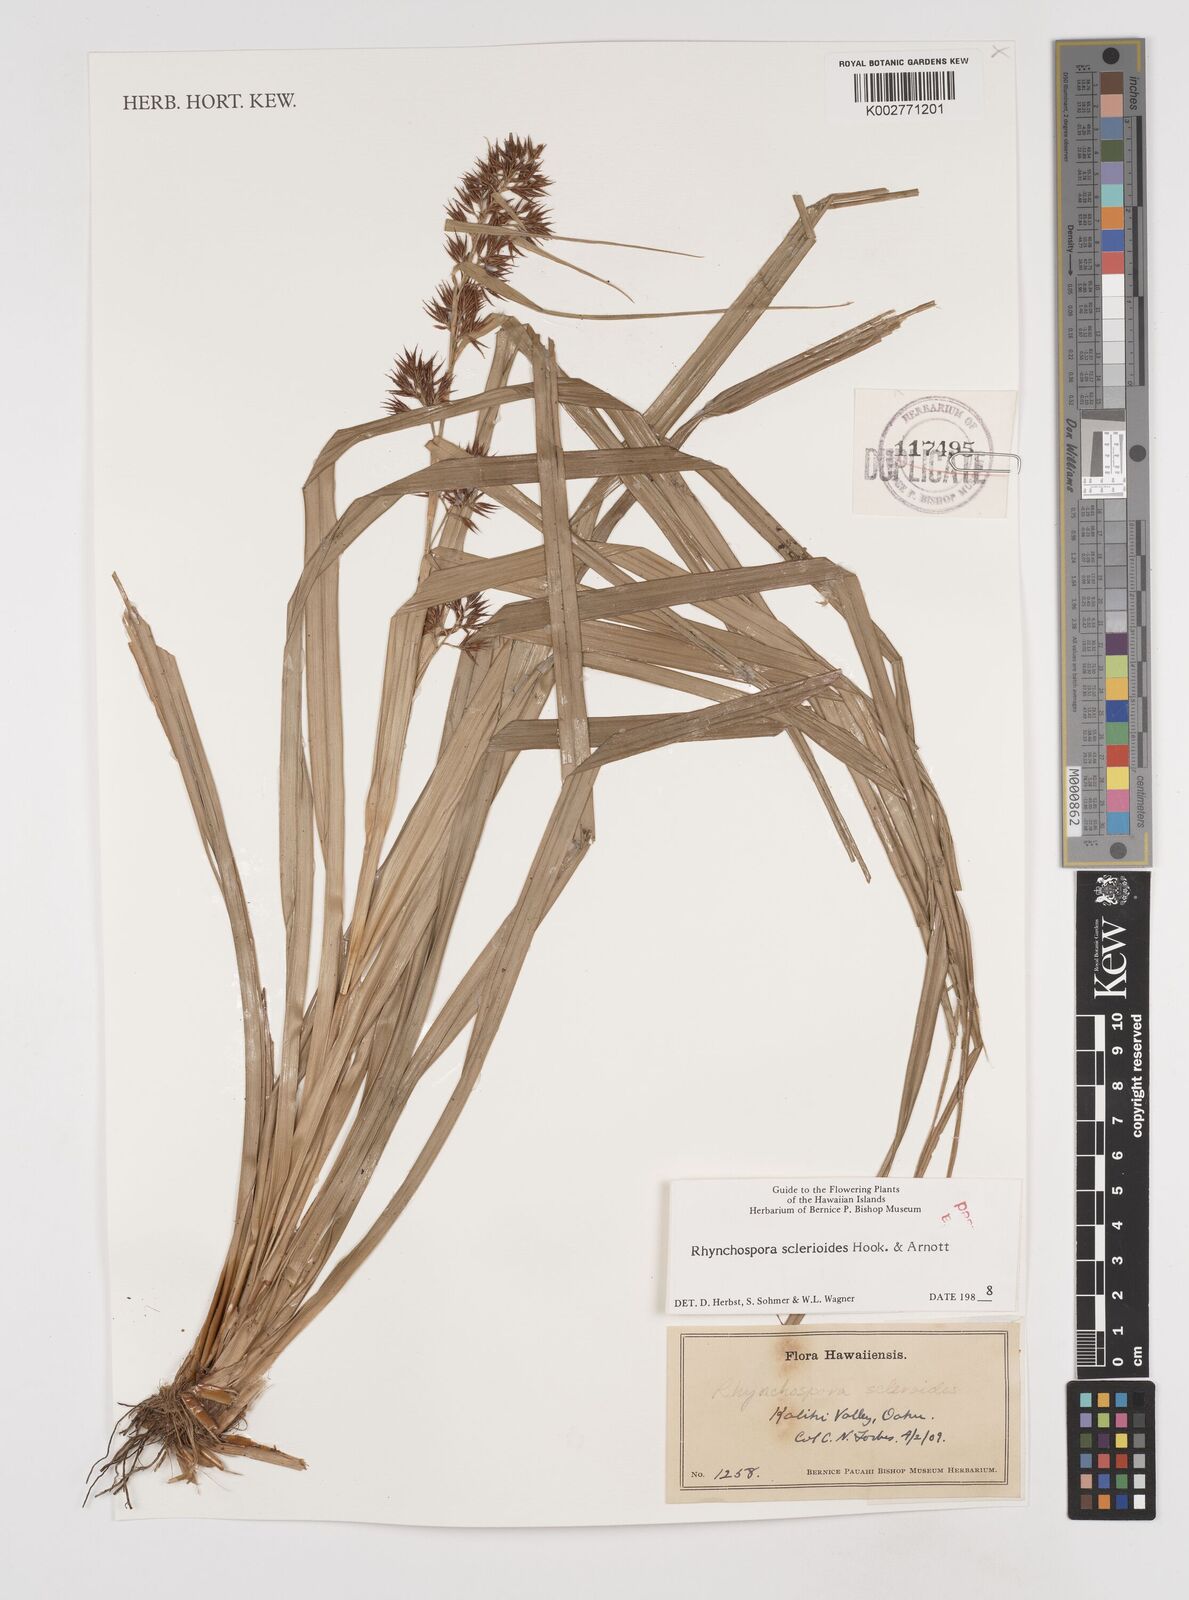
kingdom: Plantae
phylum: Tracheophyta
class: Liliopsida
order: Poales
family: Cyperaceae
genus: Rhynchospora
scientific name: Rhynchospora sclerioides
